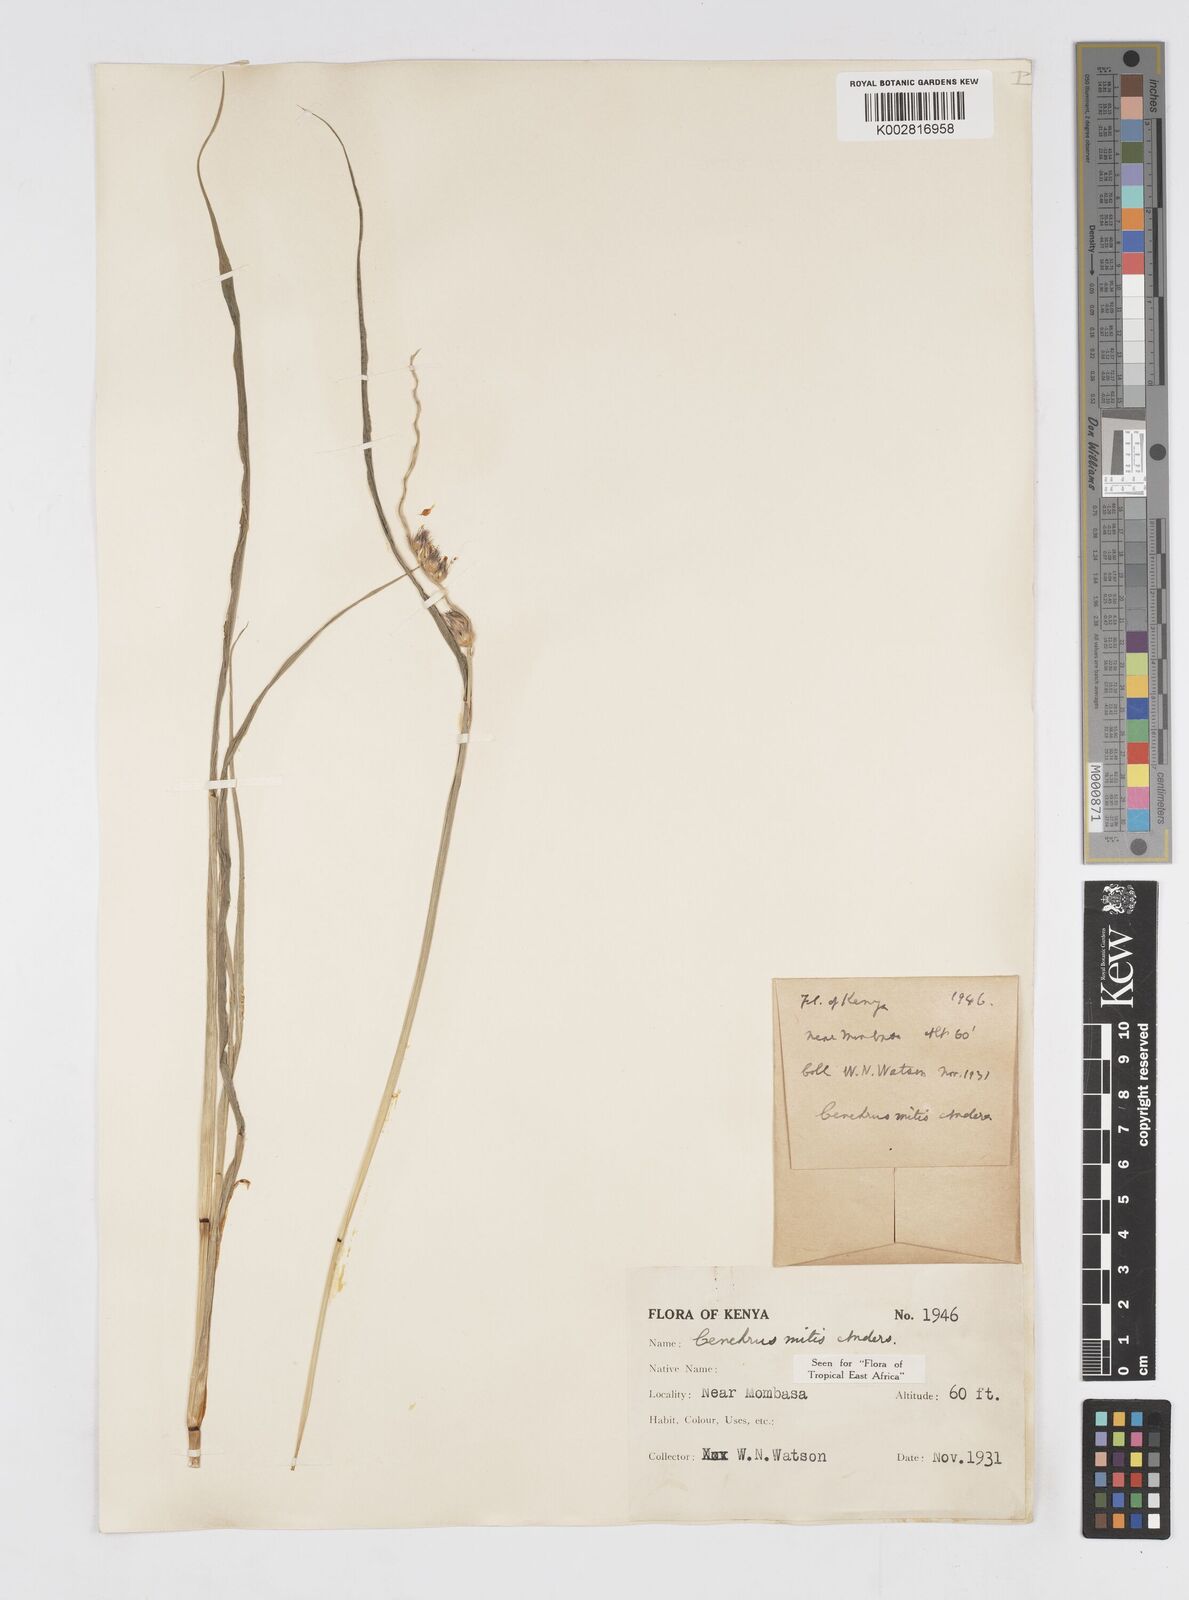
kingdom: Plantae
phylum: Tracheophyta
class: Liliopsida
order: Poales
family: Poaceae
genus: Cenchrus
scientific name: Cenchrus mitis
